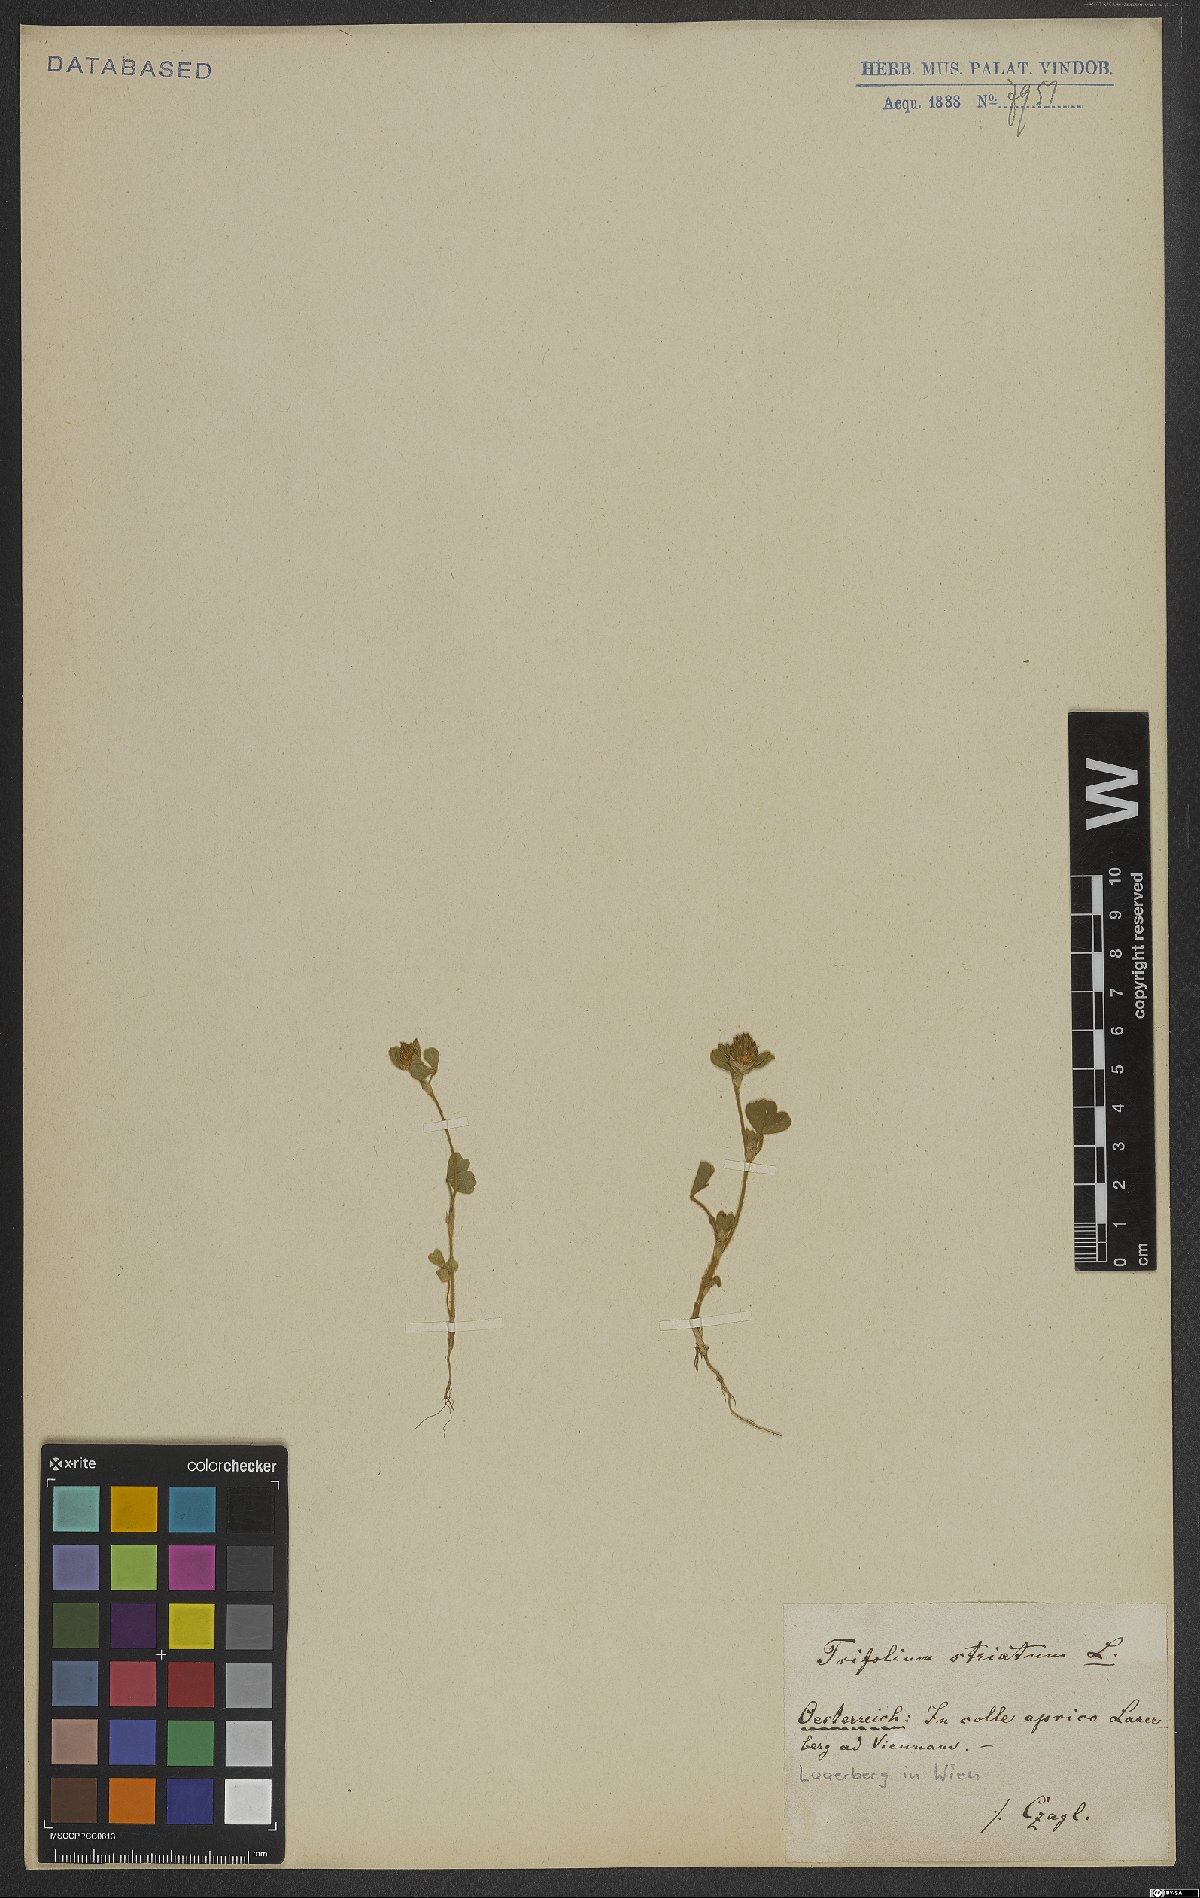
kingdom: Plantae
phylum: Tracheophyta
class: Magnoliopsida
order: Fabales
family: Fabaceae
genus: Trifolium
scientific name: Trifolium striatum
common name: Knotted clover
